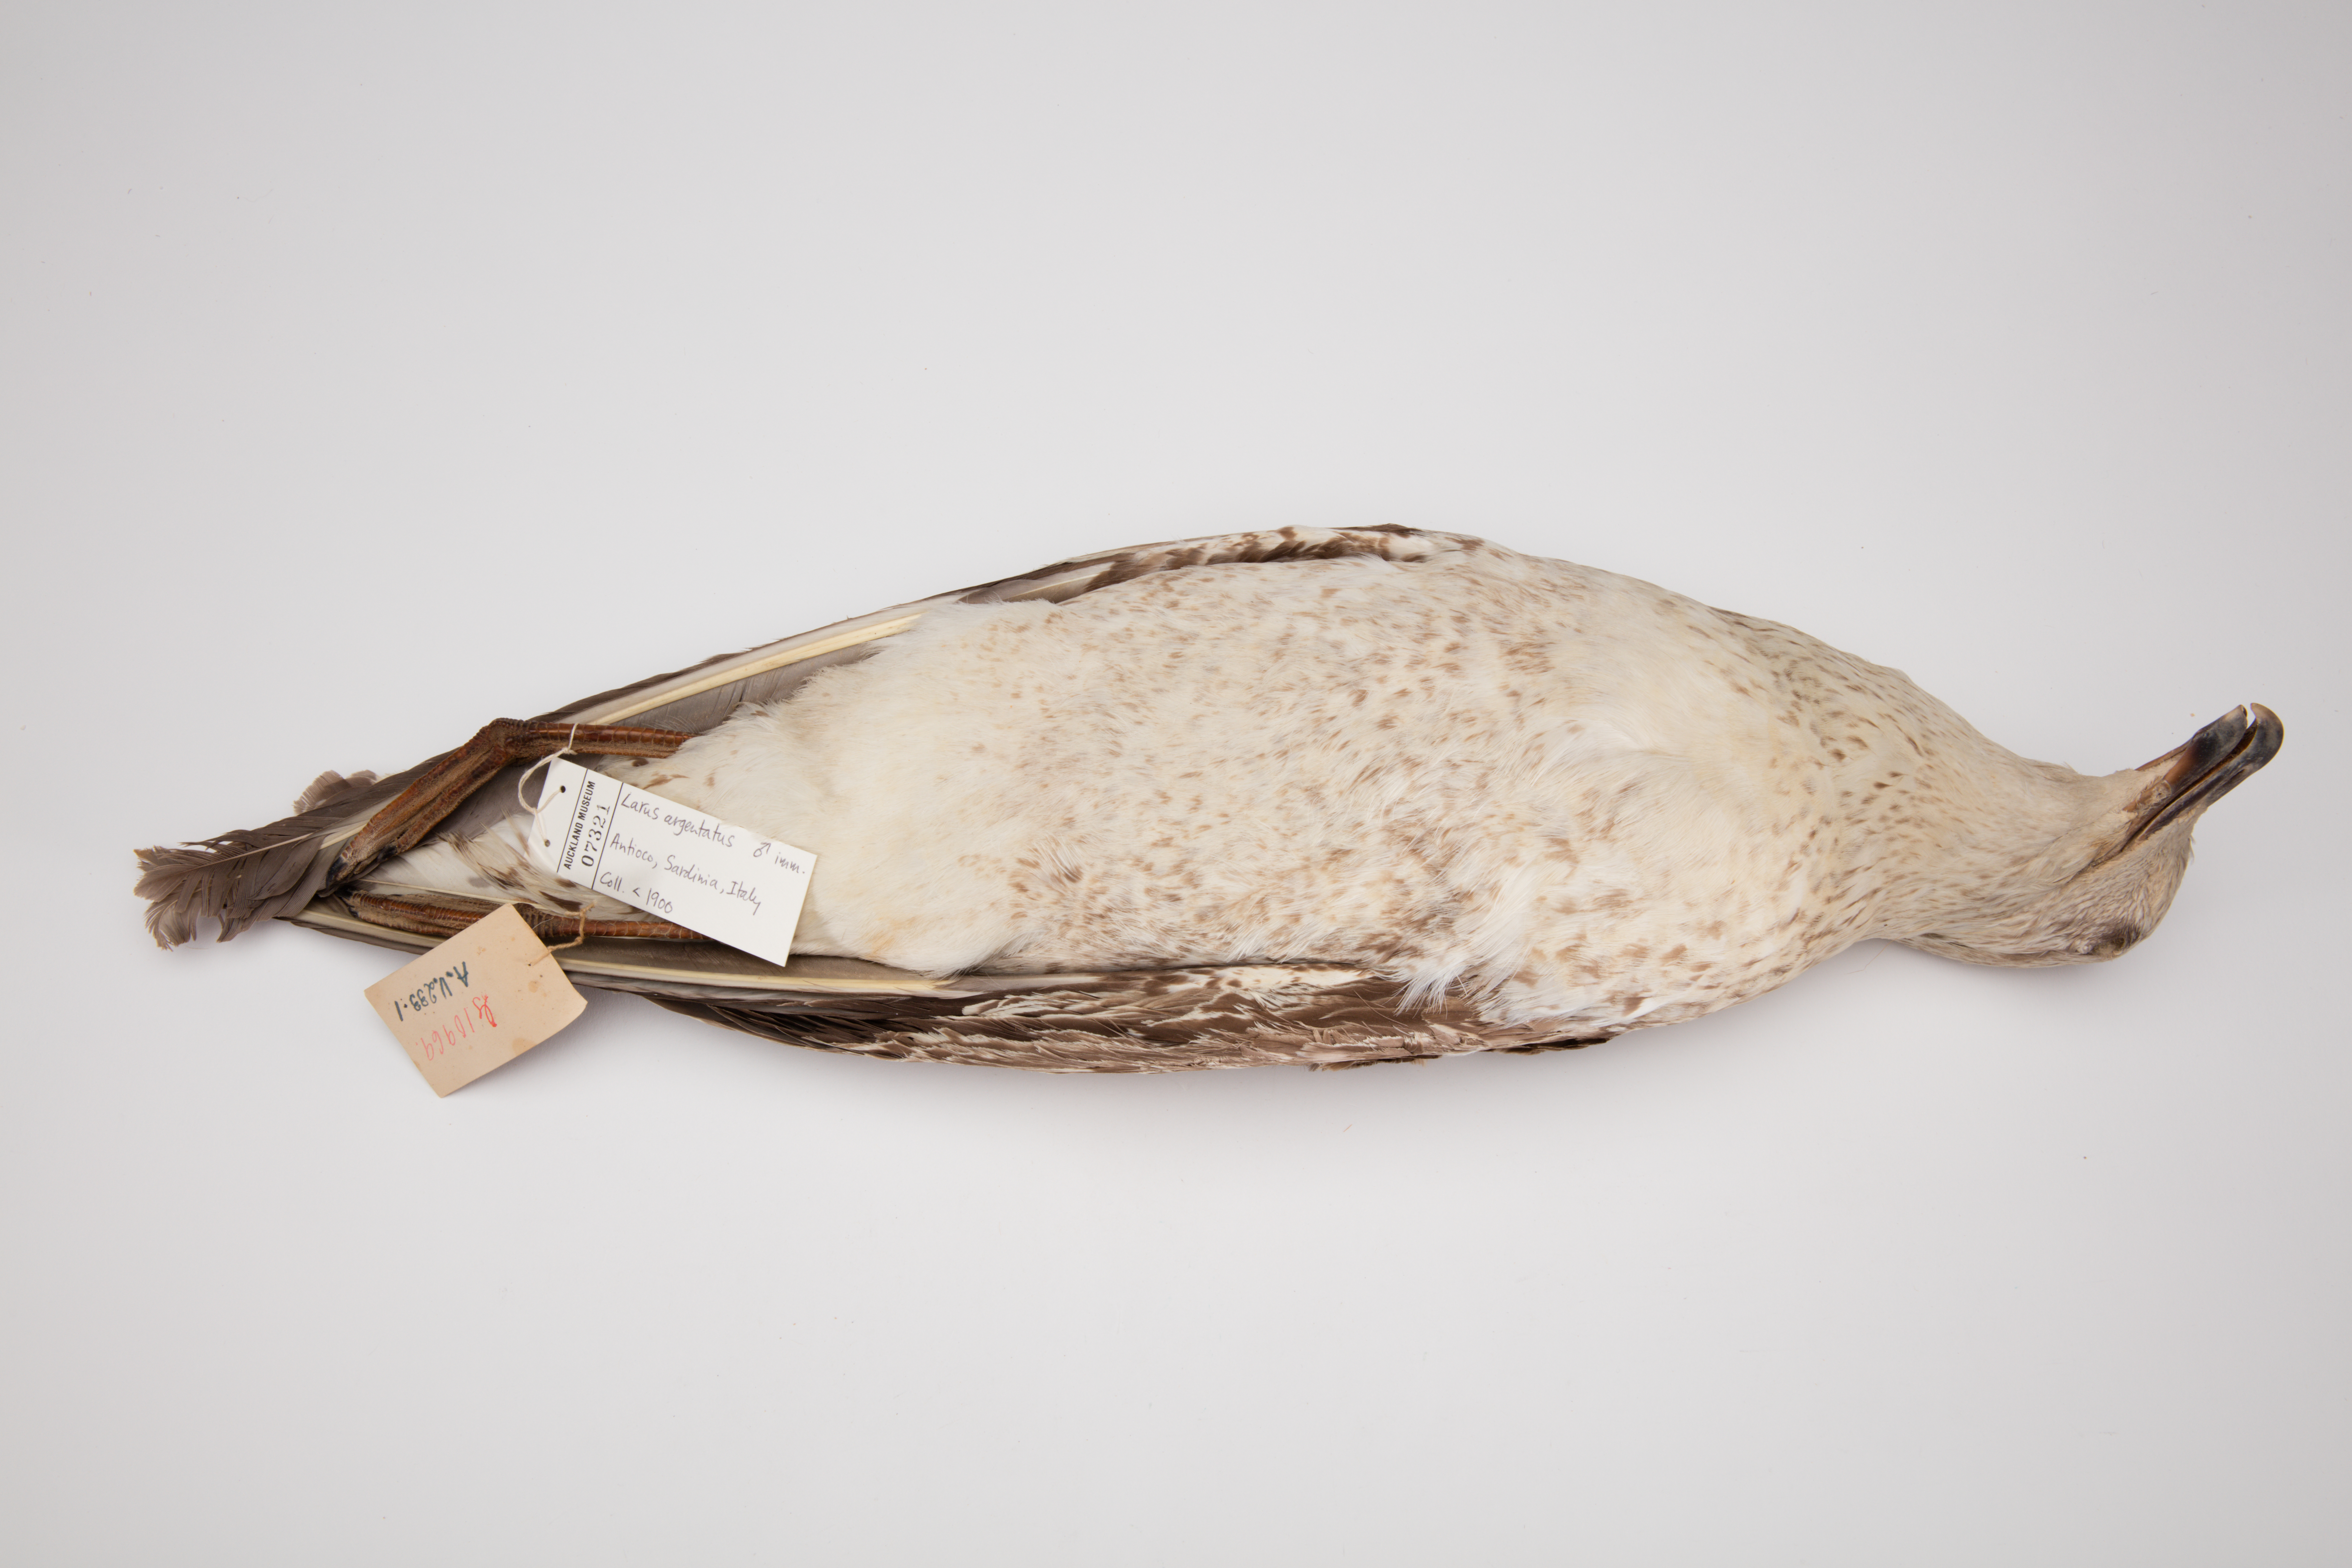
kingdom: Animalia
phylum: Chordata
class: Aves
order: Charadriiformes
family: Laridae
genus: Larus
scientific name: Larus argentatus
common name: Herring gull
